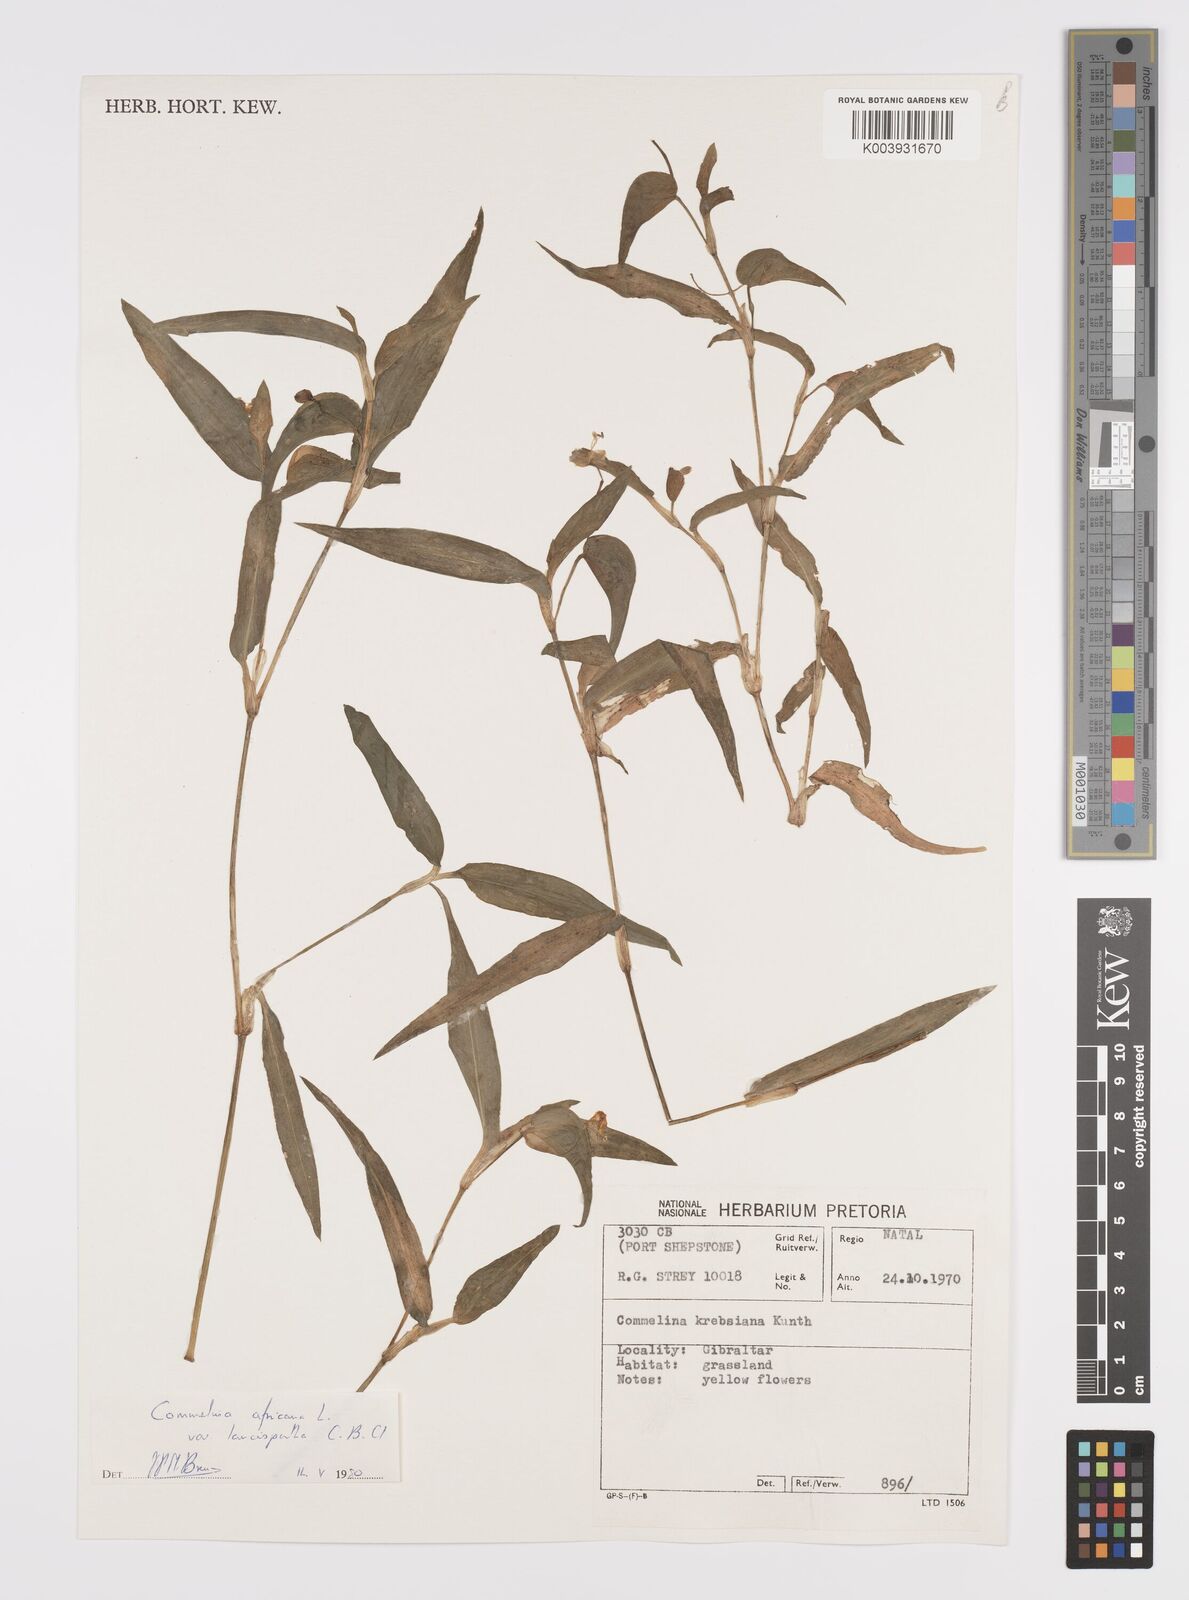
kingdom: Plantae
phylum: Tracheophyta
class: Liliopsida
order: Commelinales
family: Commelinaceae
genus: Commelina
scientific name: Commelina africana
